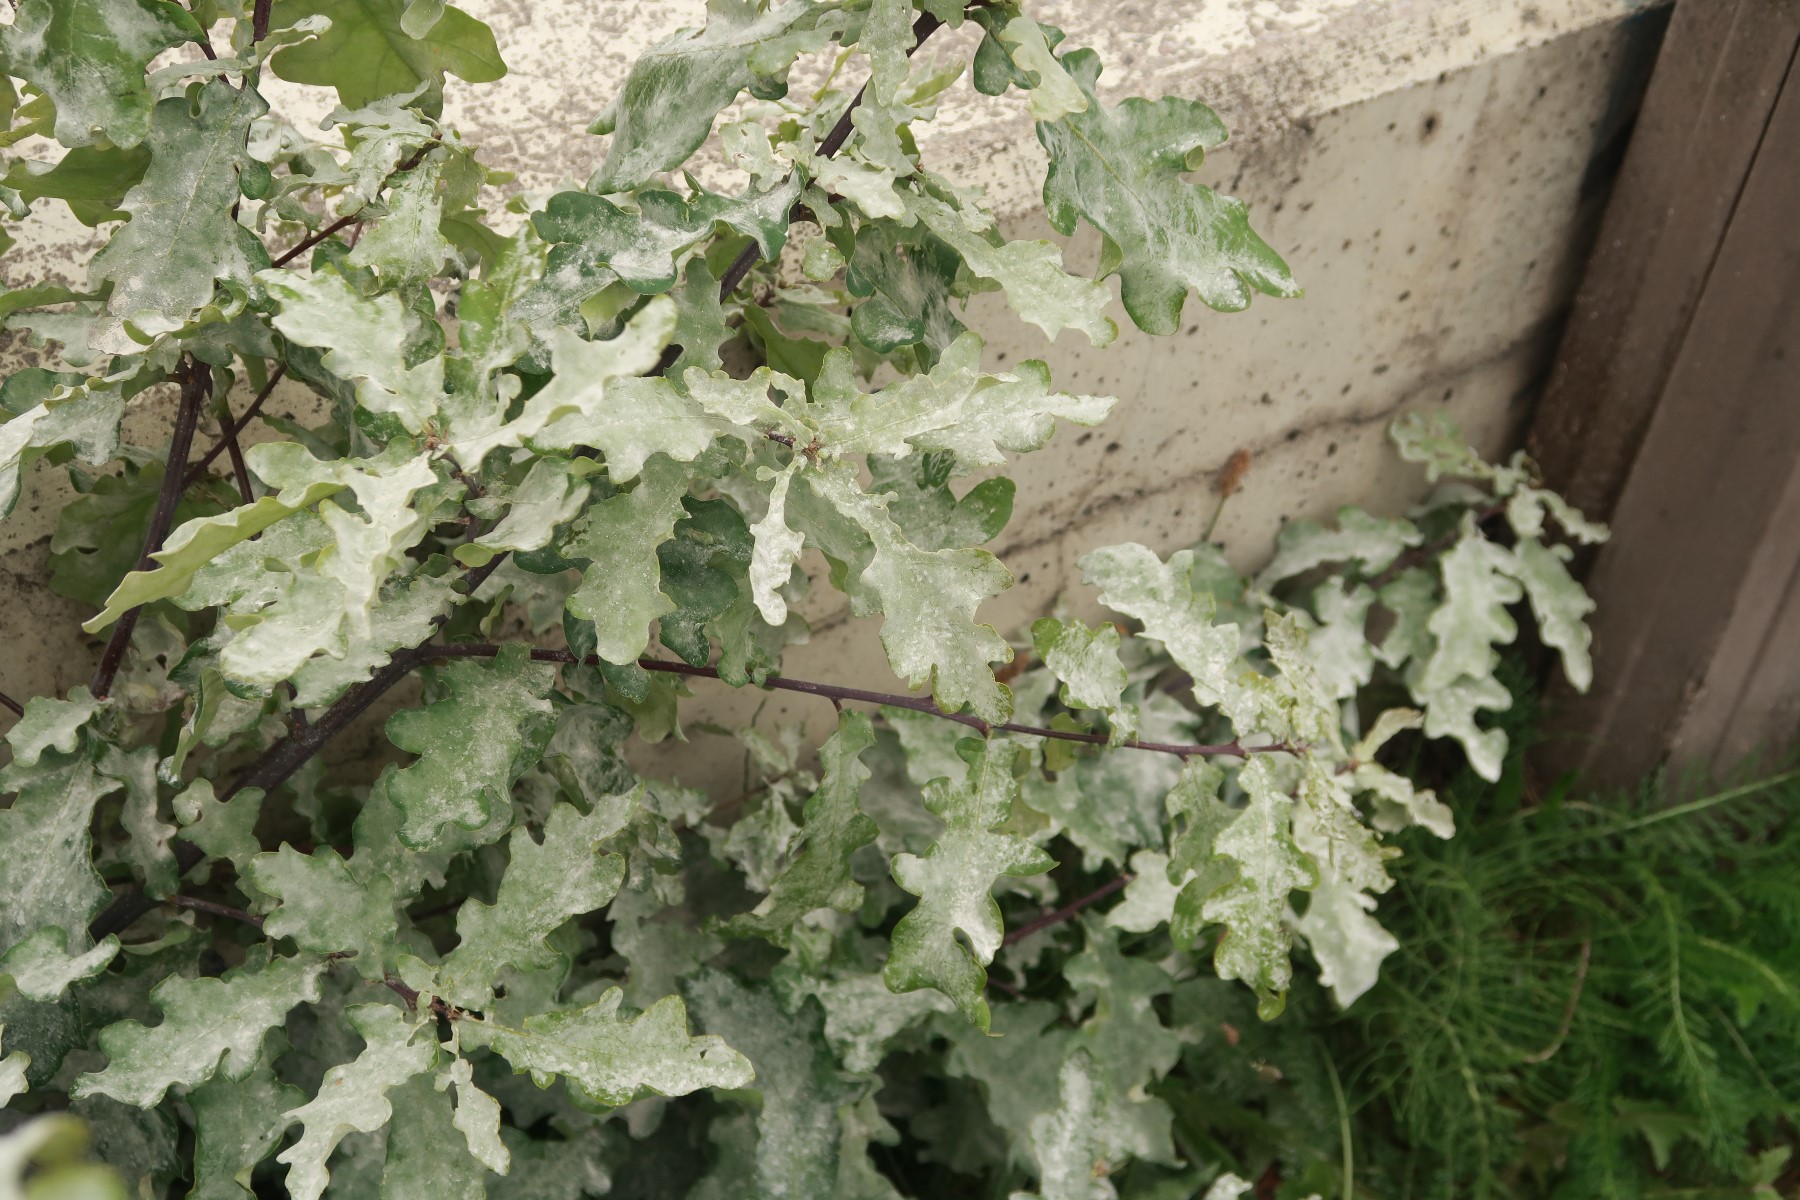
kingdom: Fungi
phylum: Ascomycota
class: Leotiomycetes
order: Helotiales
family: Erysiphaceae
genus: Erysiphe
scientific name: Erysiphe alphitoides
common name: ege-meldug
